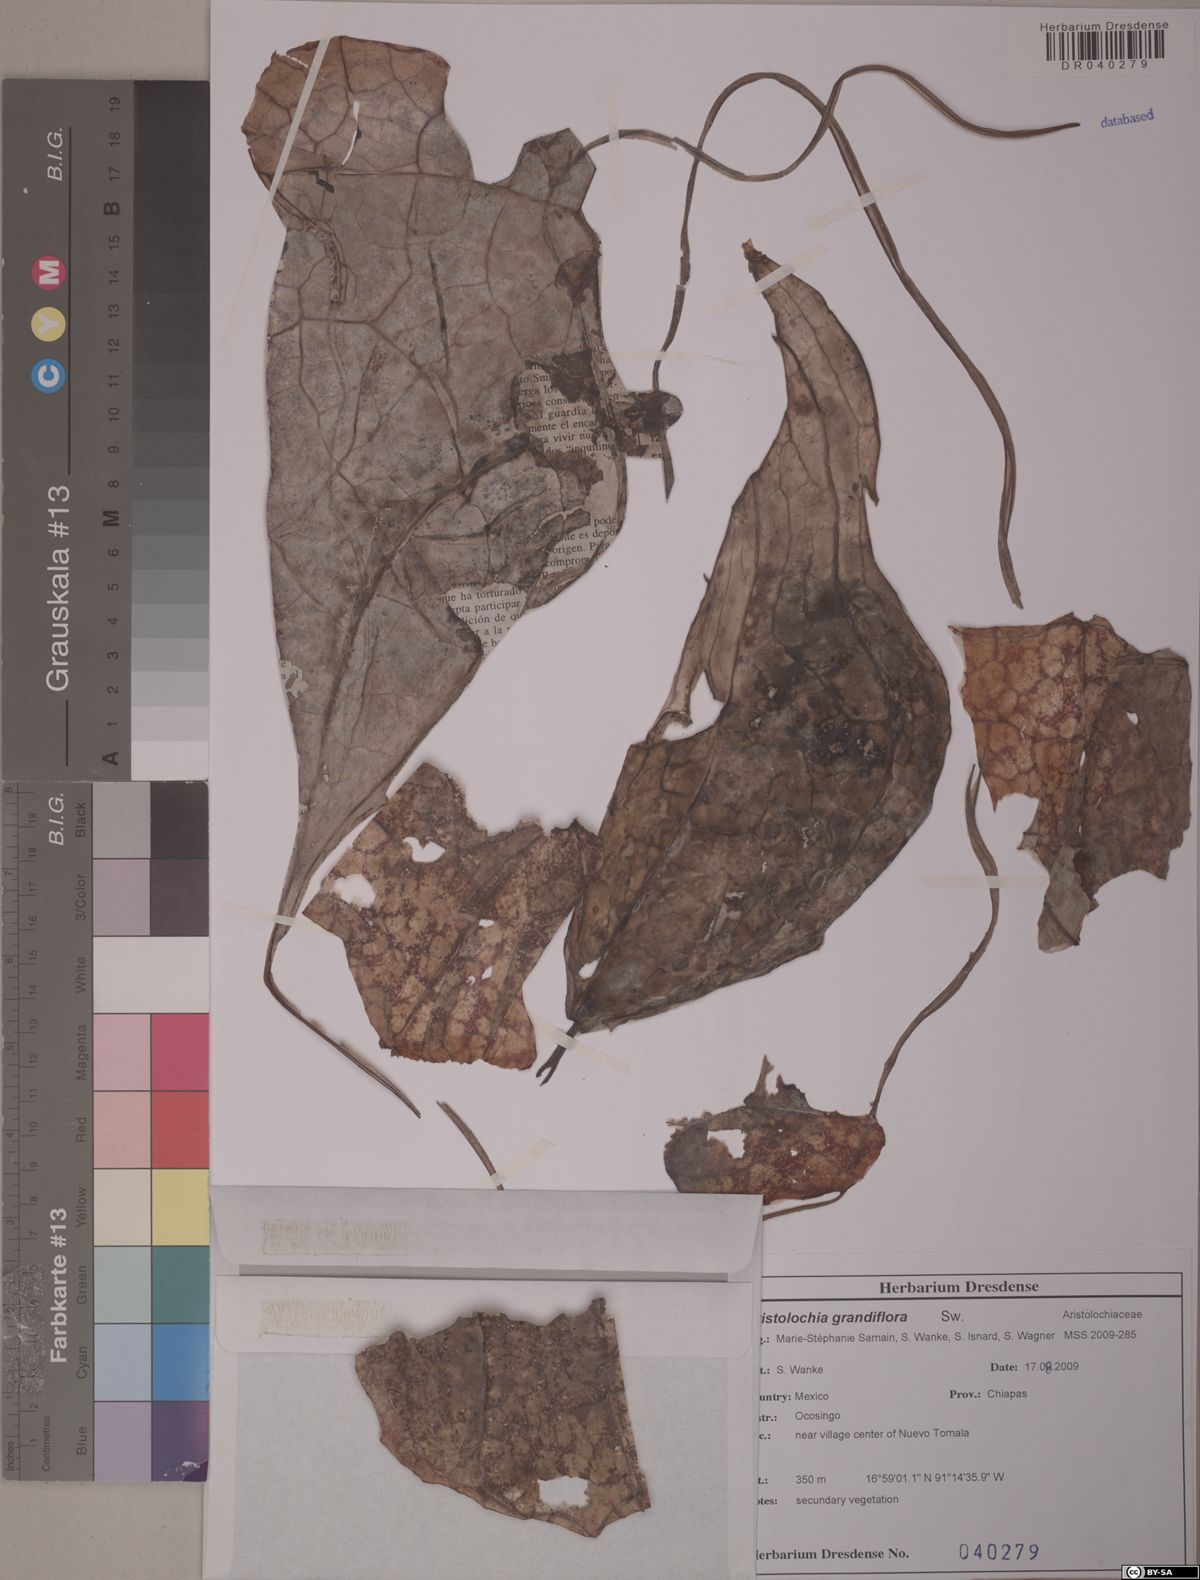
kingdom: Plantae
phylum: Tracheophyta
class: Magnoliopsida
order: Piperales
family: Aristolochiaceae
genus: Aristolochia
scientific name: Aristolochia grandiflora
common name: Pelicanflower
